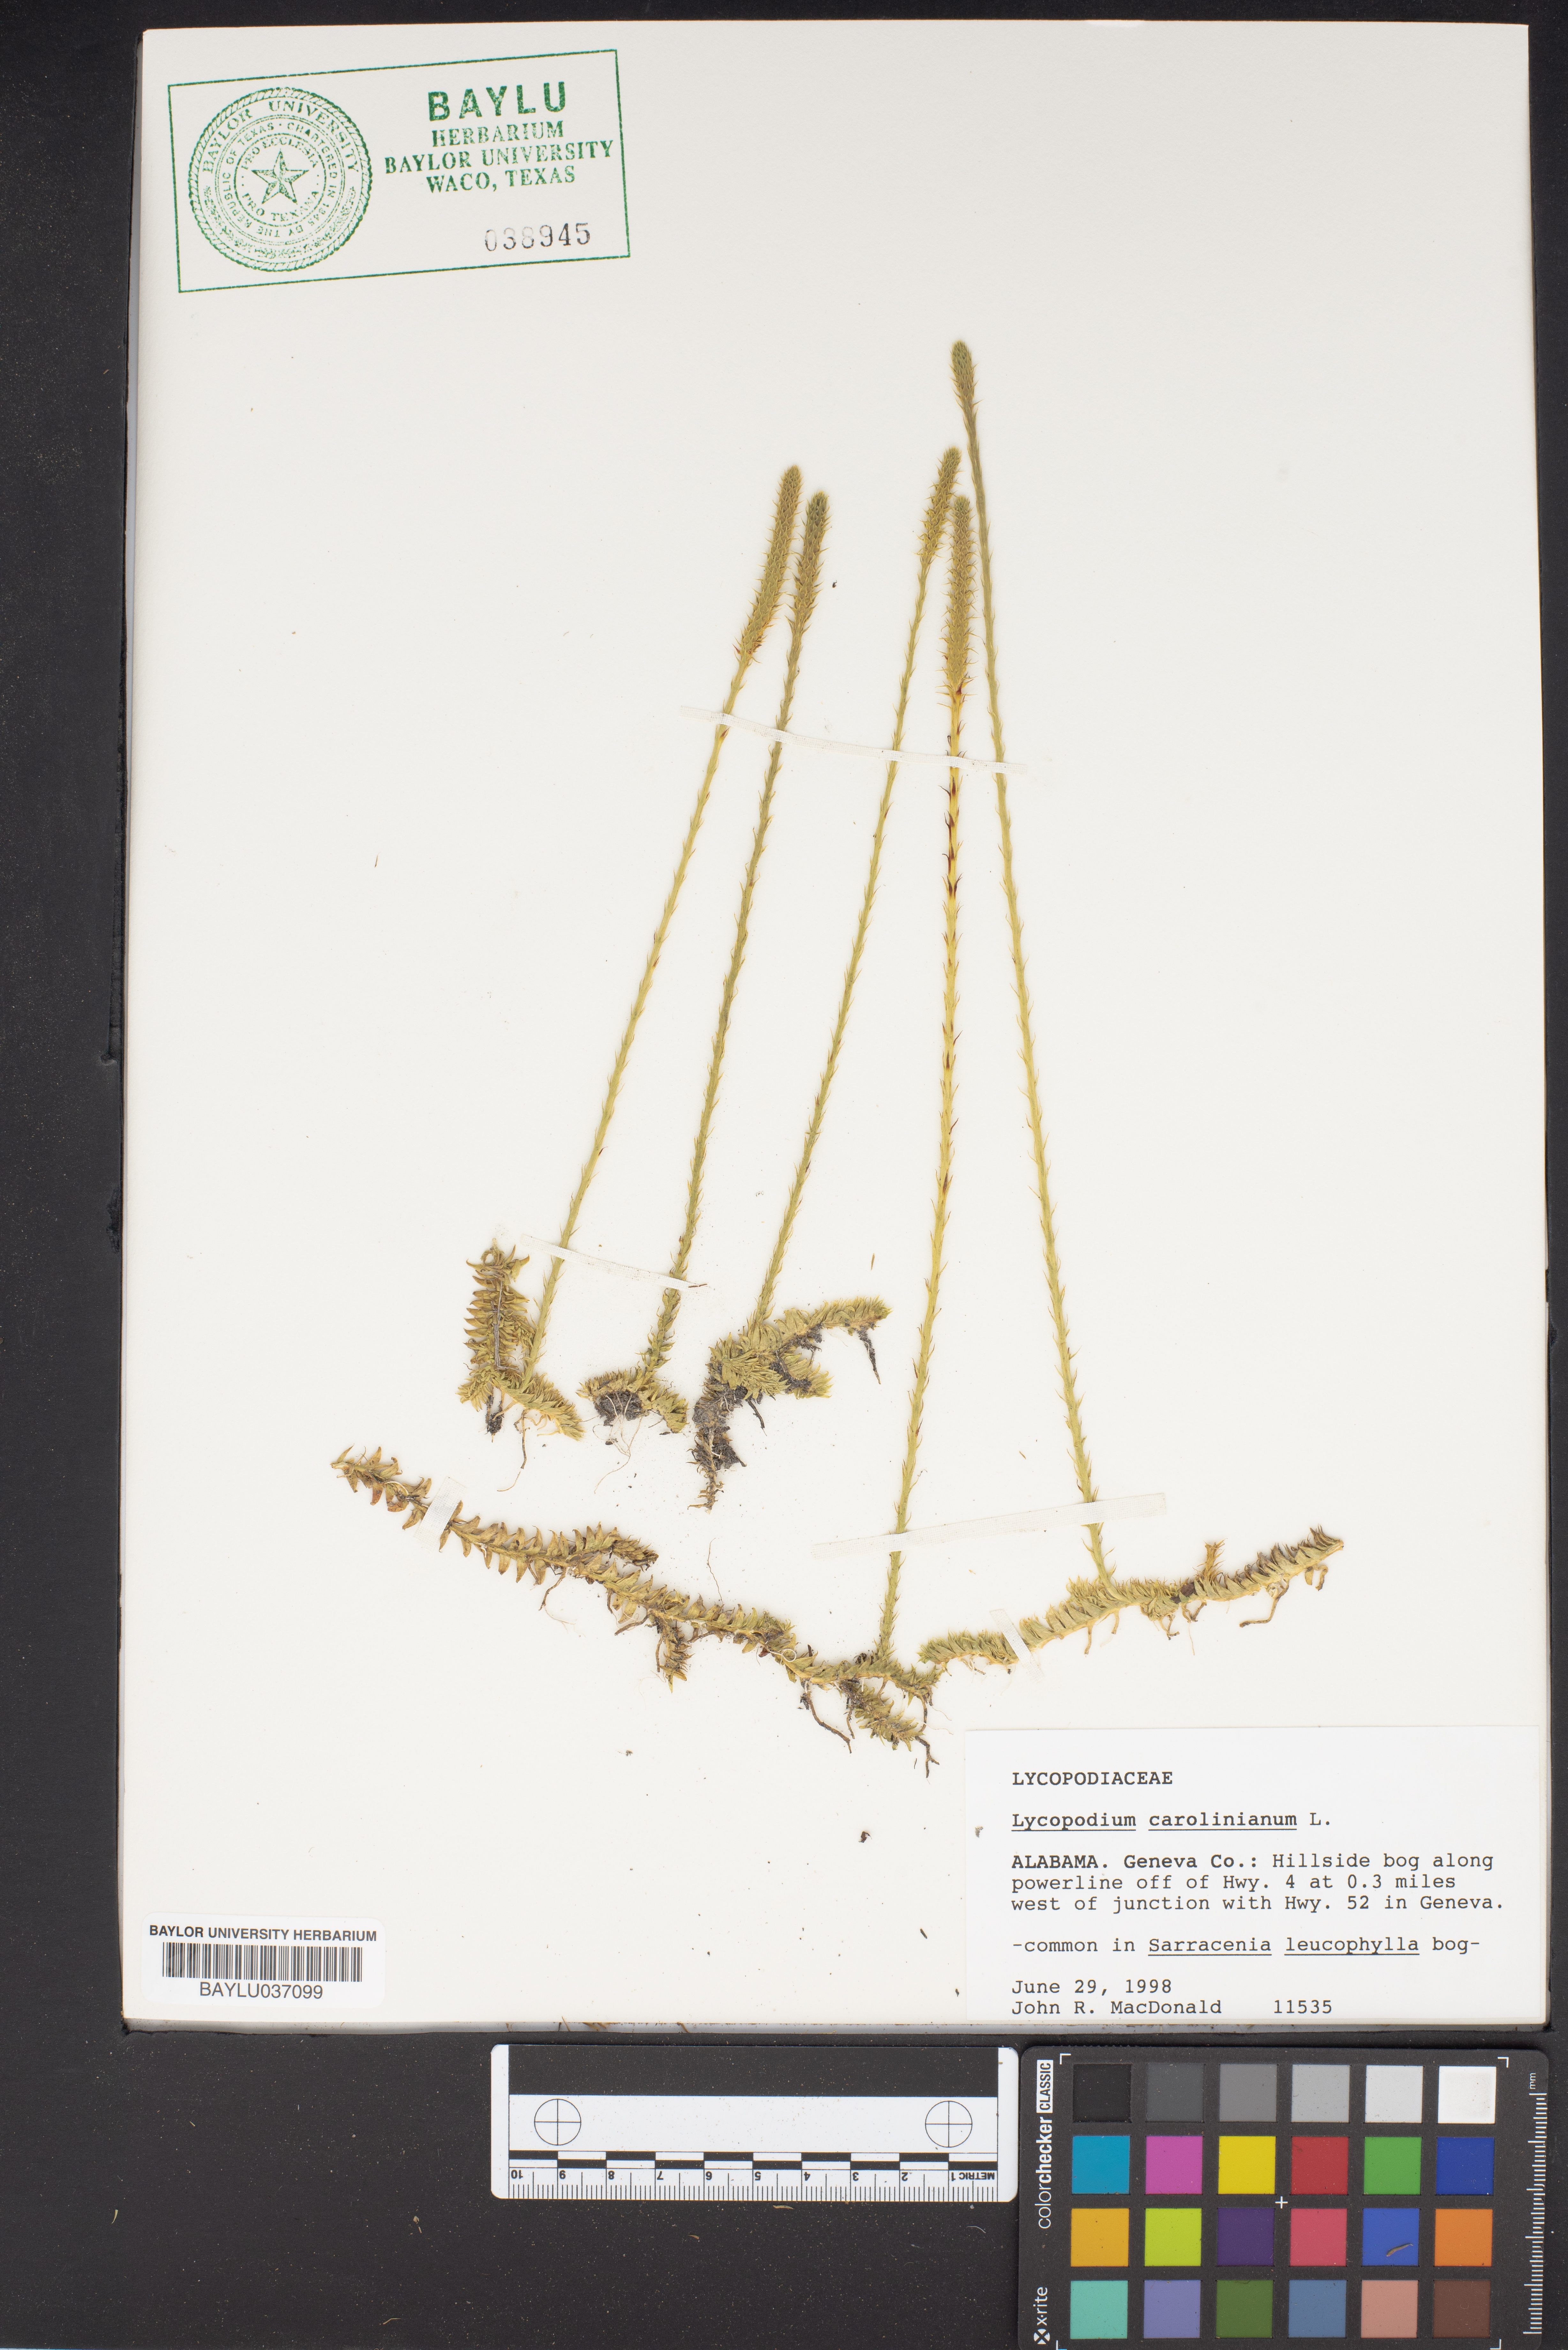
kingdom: Plantae
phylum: Tracheophyta
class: Lycopodiopsida
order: Lycopodiales
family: Lycopodiaceae
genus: Pseudolycopodiella
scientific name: Pseudolycopodiella caroliniana
